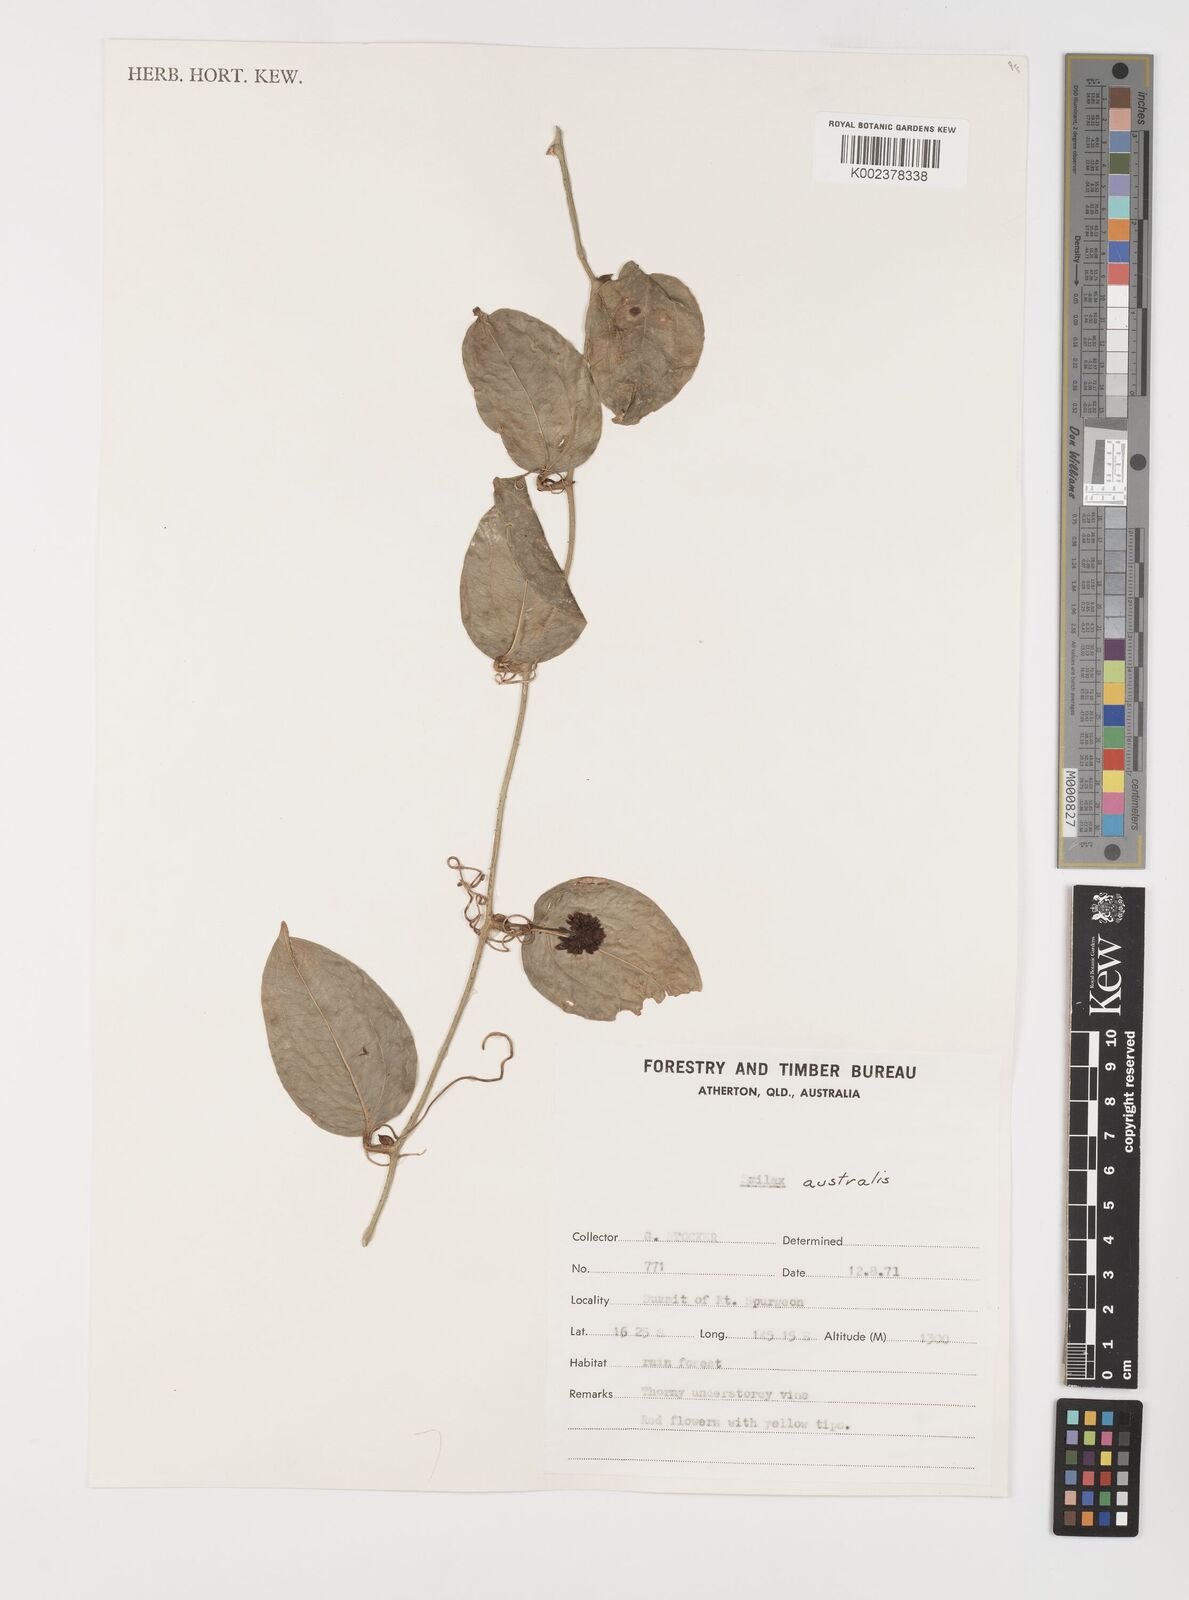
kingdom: Plantae
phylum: Tracheophyta
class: Liliopsida
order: Liliales
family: Smilacaceae
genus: Smilax
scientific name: Smilax australis
